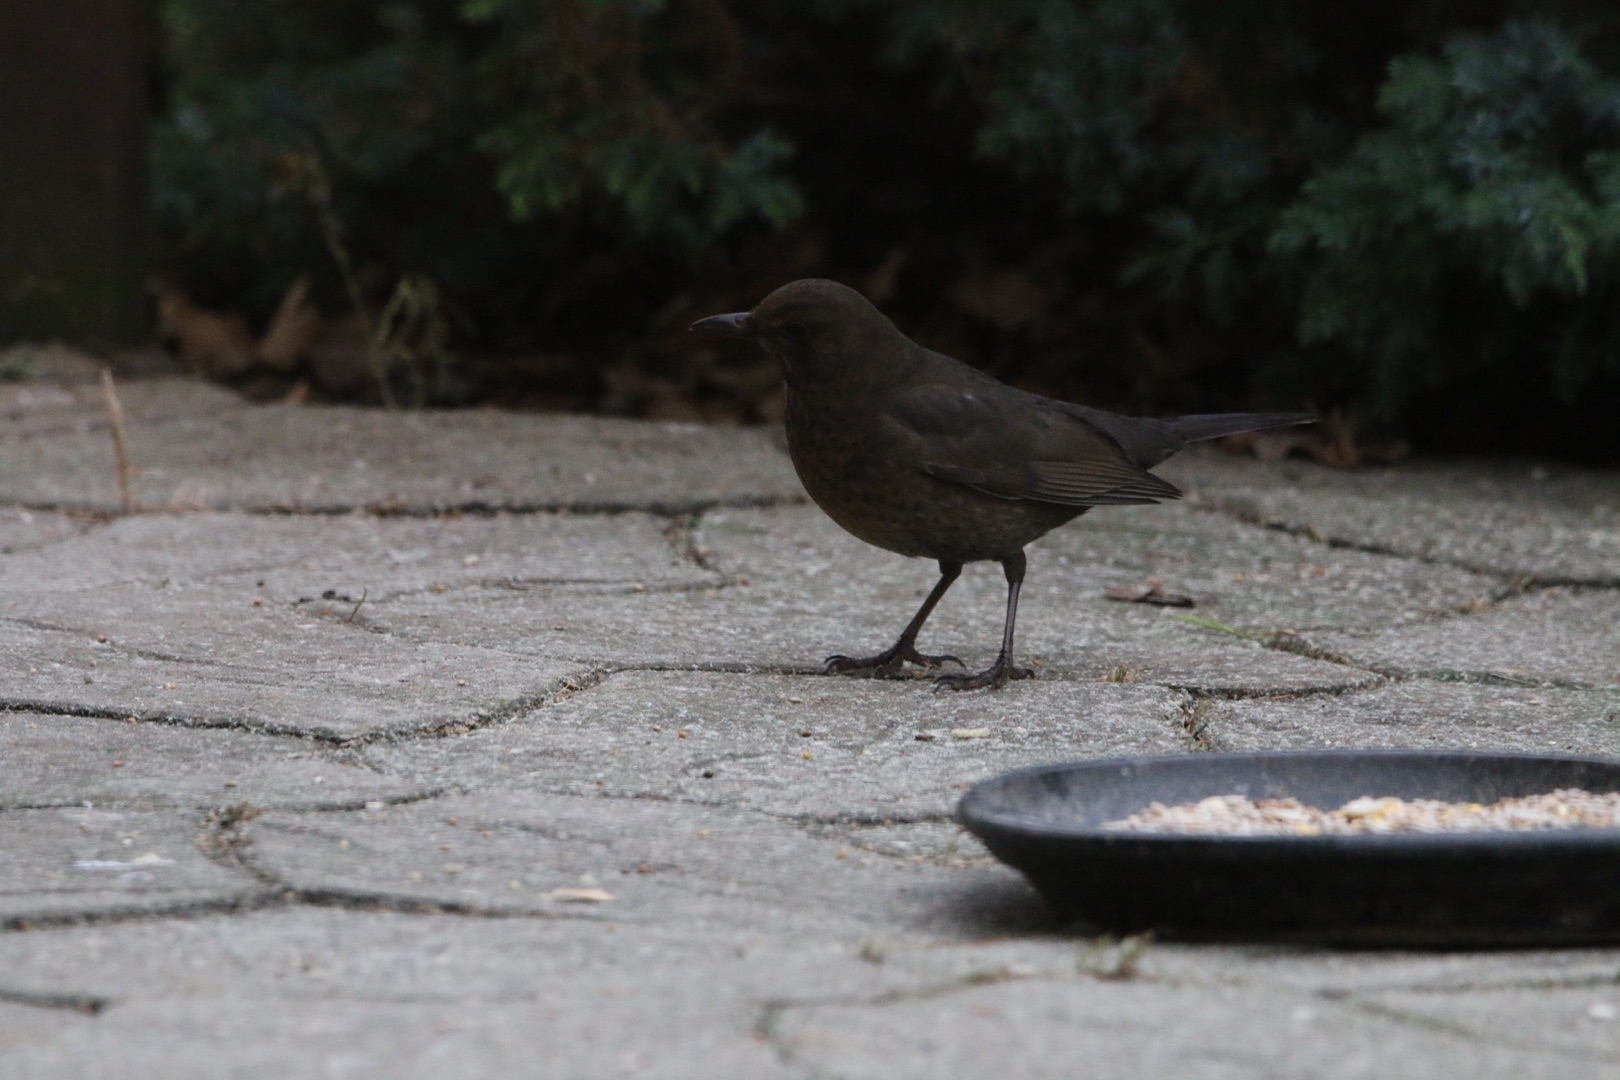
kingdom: Animalia
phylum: Chordata
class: Aves
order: Passeriformes
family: Turdidae
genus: Turdus
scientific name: Turdus merula
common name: Solsort
